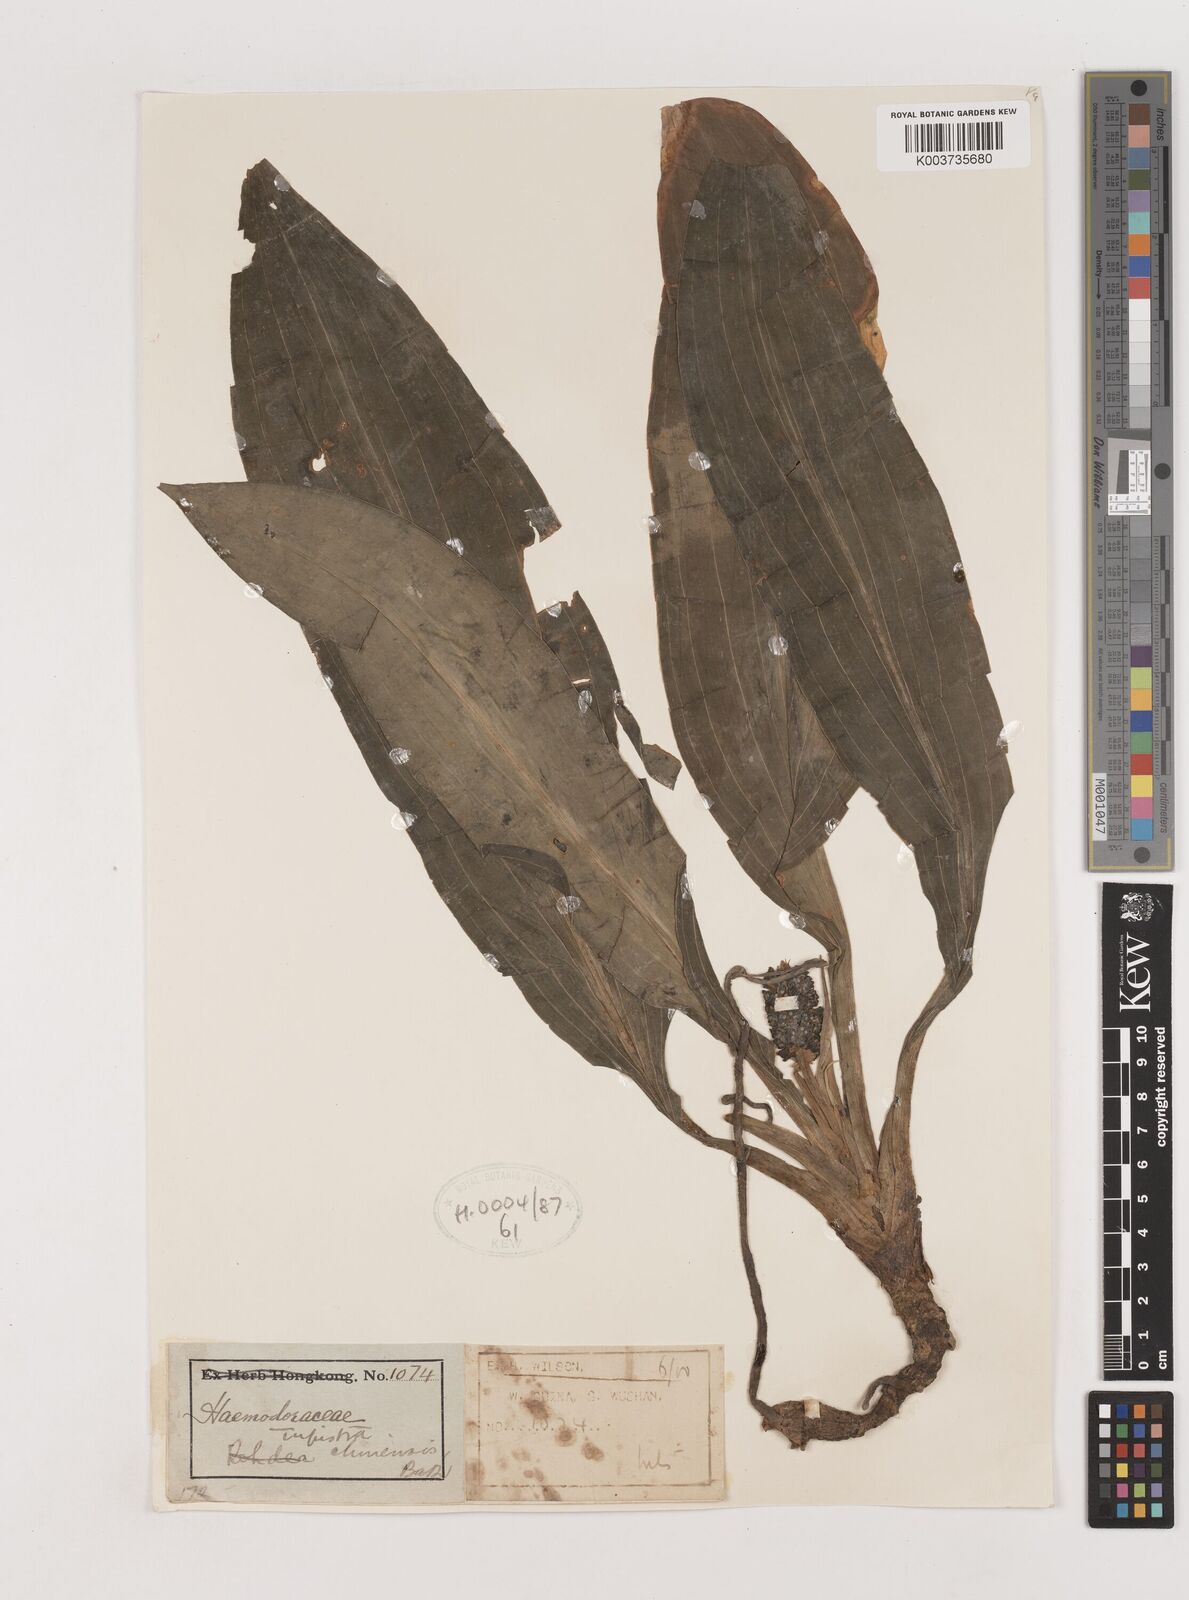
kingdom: Plantae
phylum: Tracheophyta
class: Liliopsida
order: Asparagales
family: Asparagaceae
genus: Rohdea
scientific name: Rohdea fargesii
